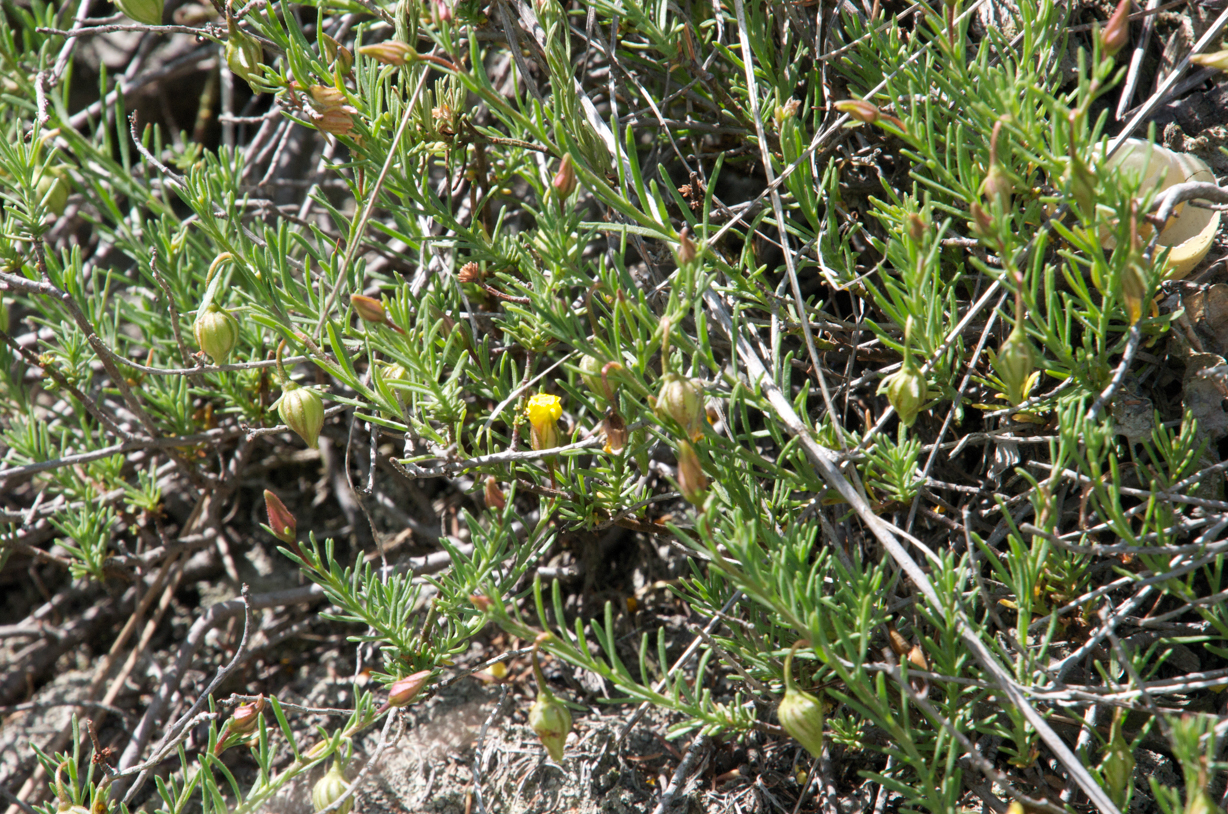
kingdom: Plantae
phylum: Tracheophyta
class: Magnoliopsida
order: Malvales
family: Cistaceae
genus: Helianthemum
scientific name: Helianthemum canum
